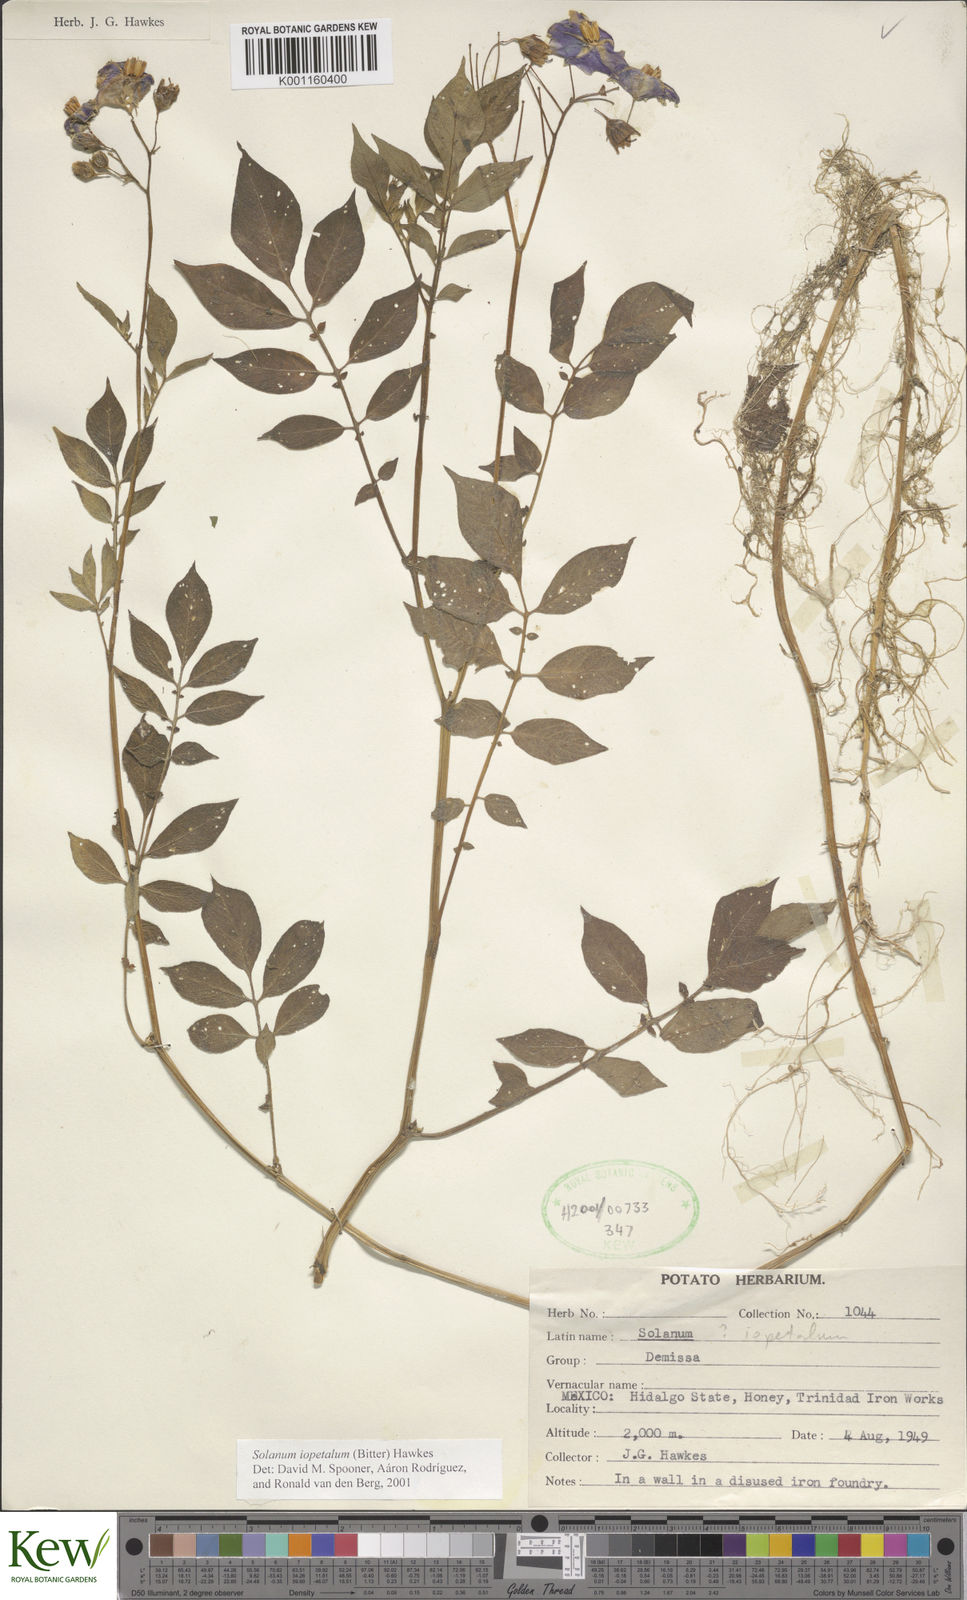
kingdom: Plantae
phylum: Tracheophyta
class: Magnoliopsida
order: Solanales
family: Solanaceae
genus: Solanum
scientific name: Solanum iopetalum
